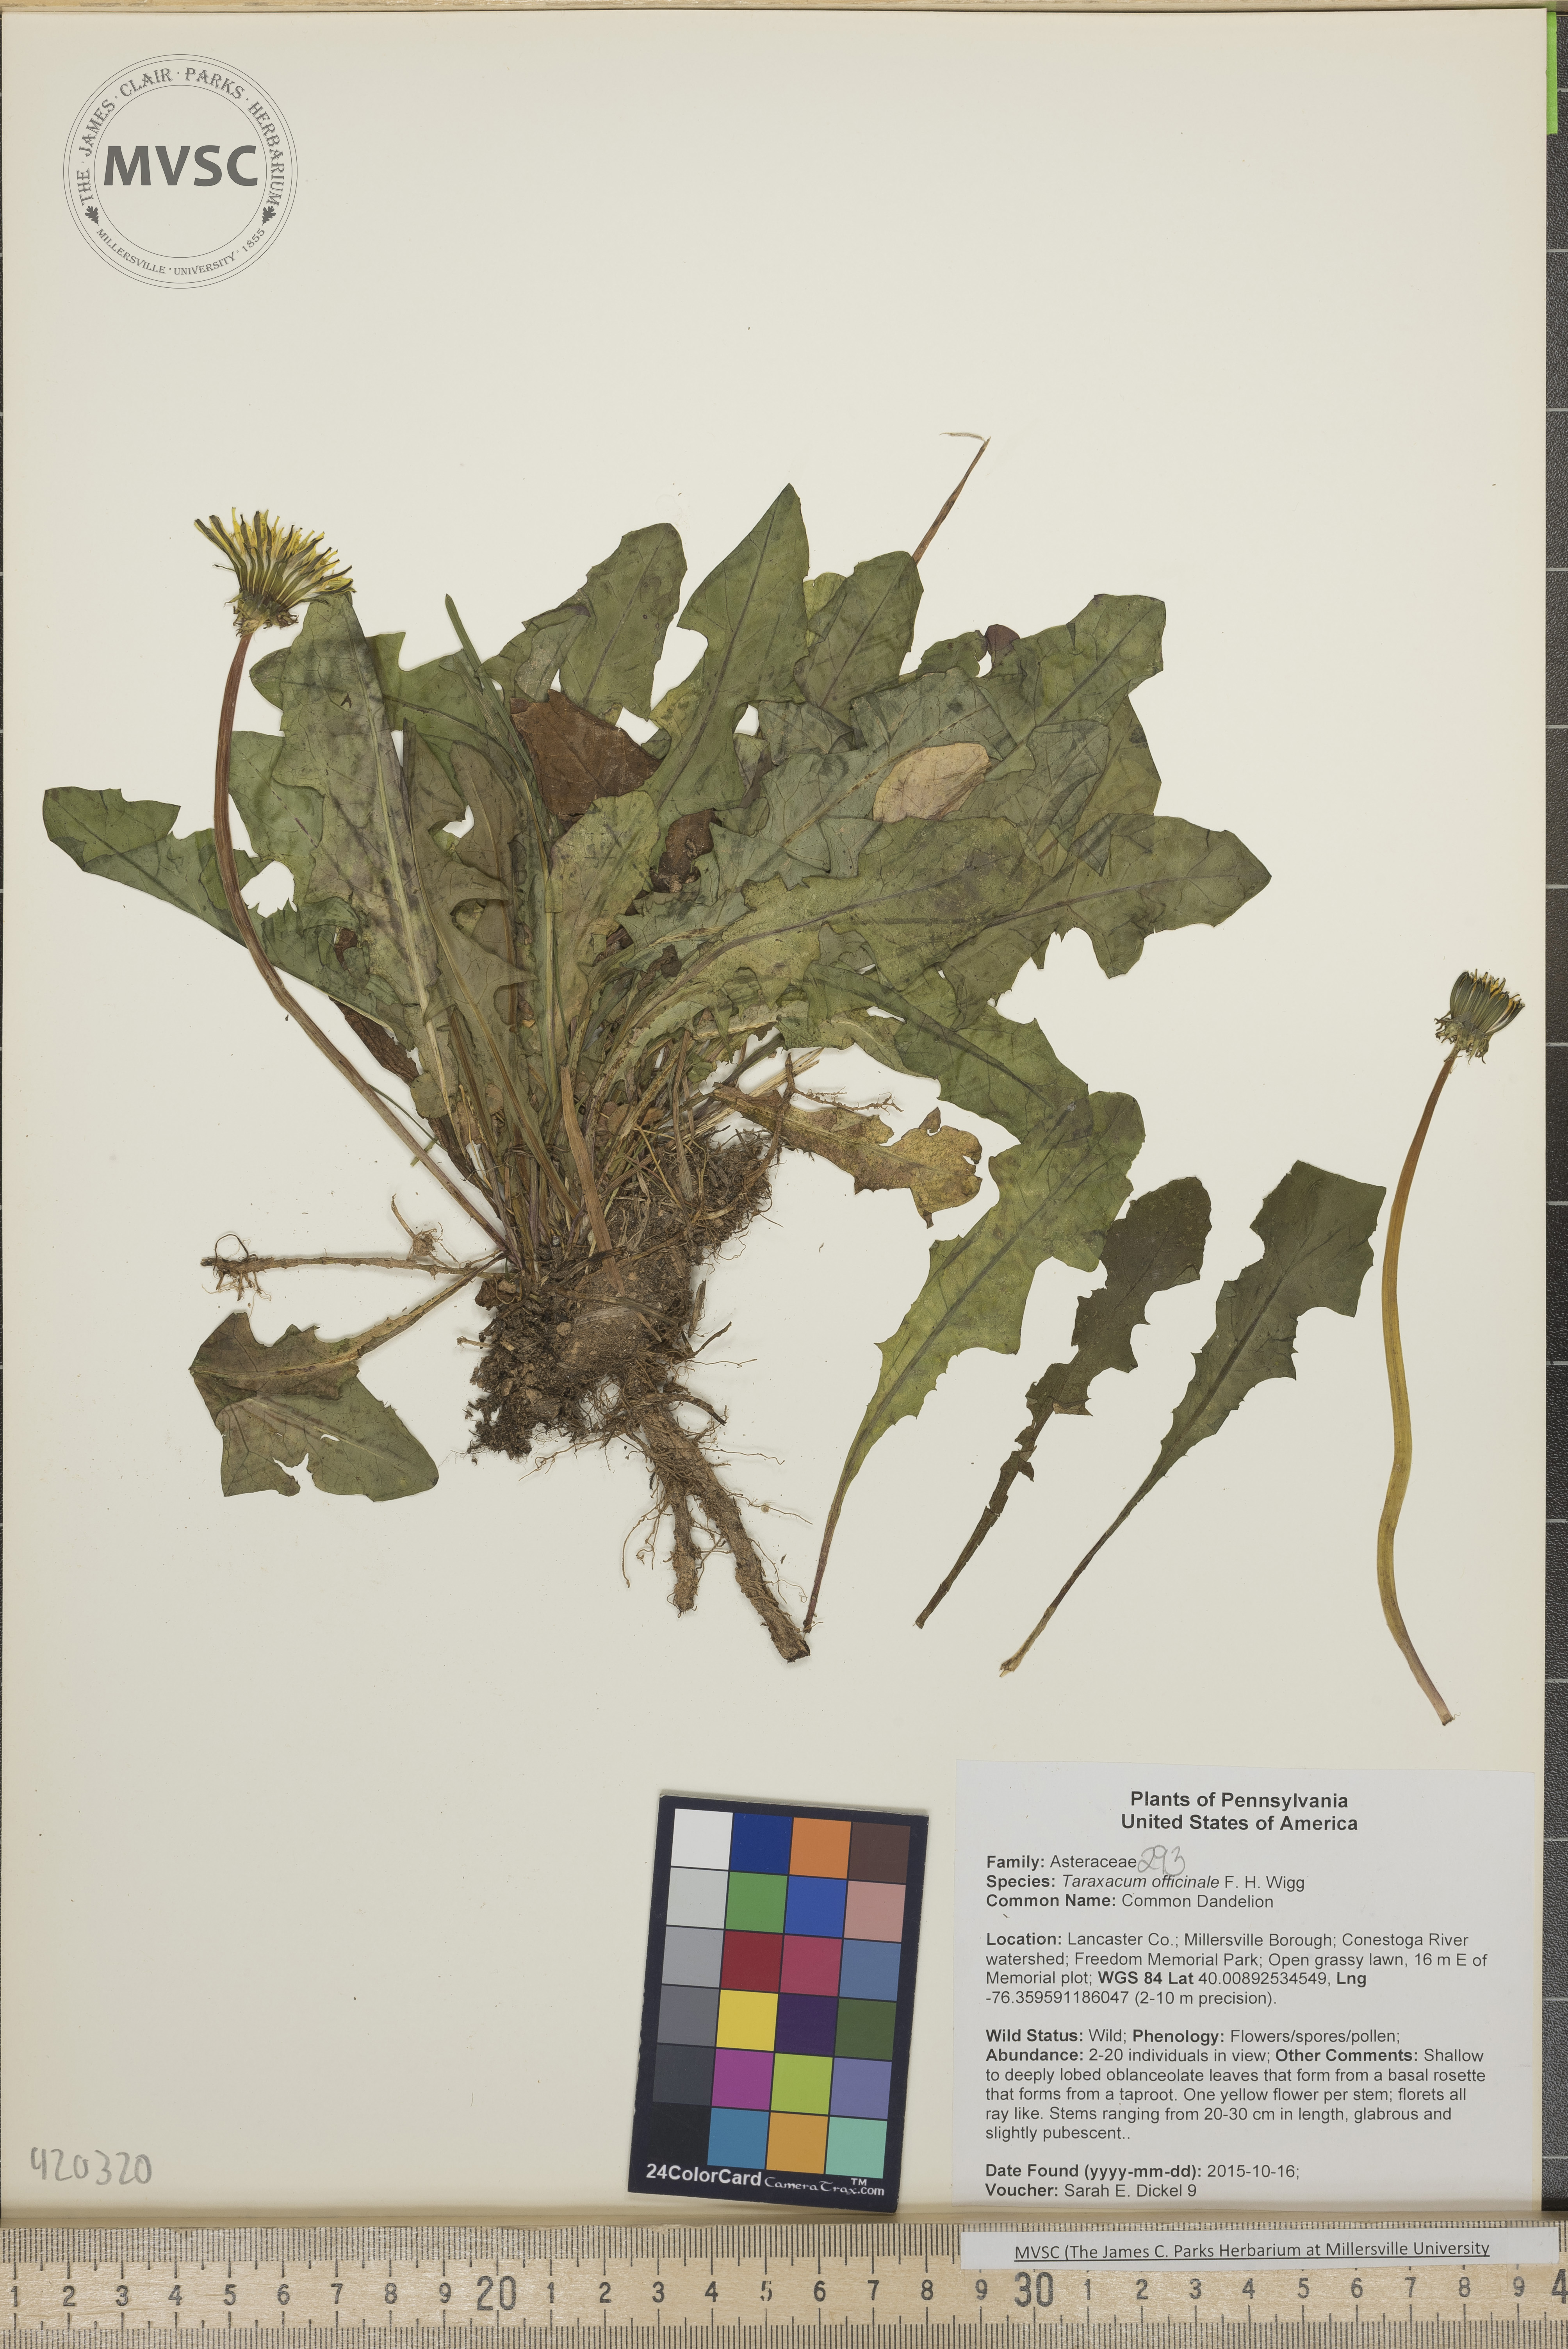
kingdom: Plantae
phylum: Tracheophyta
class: Magnoliopsida
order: Asterales
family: Asteraceae
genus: Taraxacum
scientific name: Taraxacum officinale
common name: Common Dandelion
